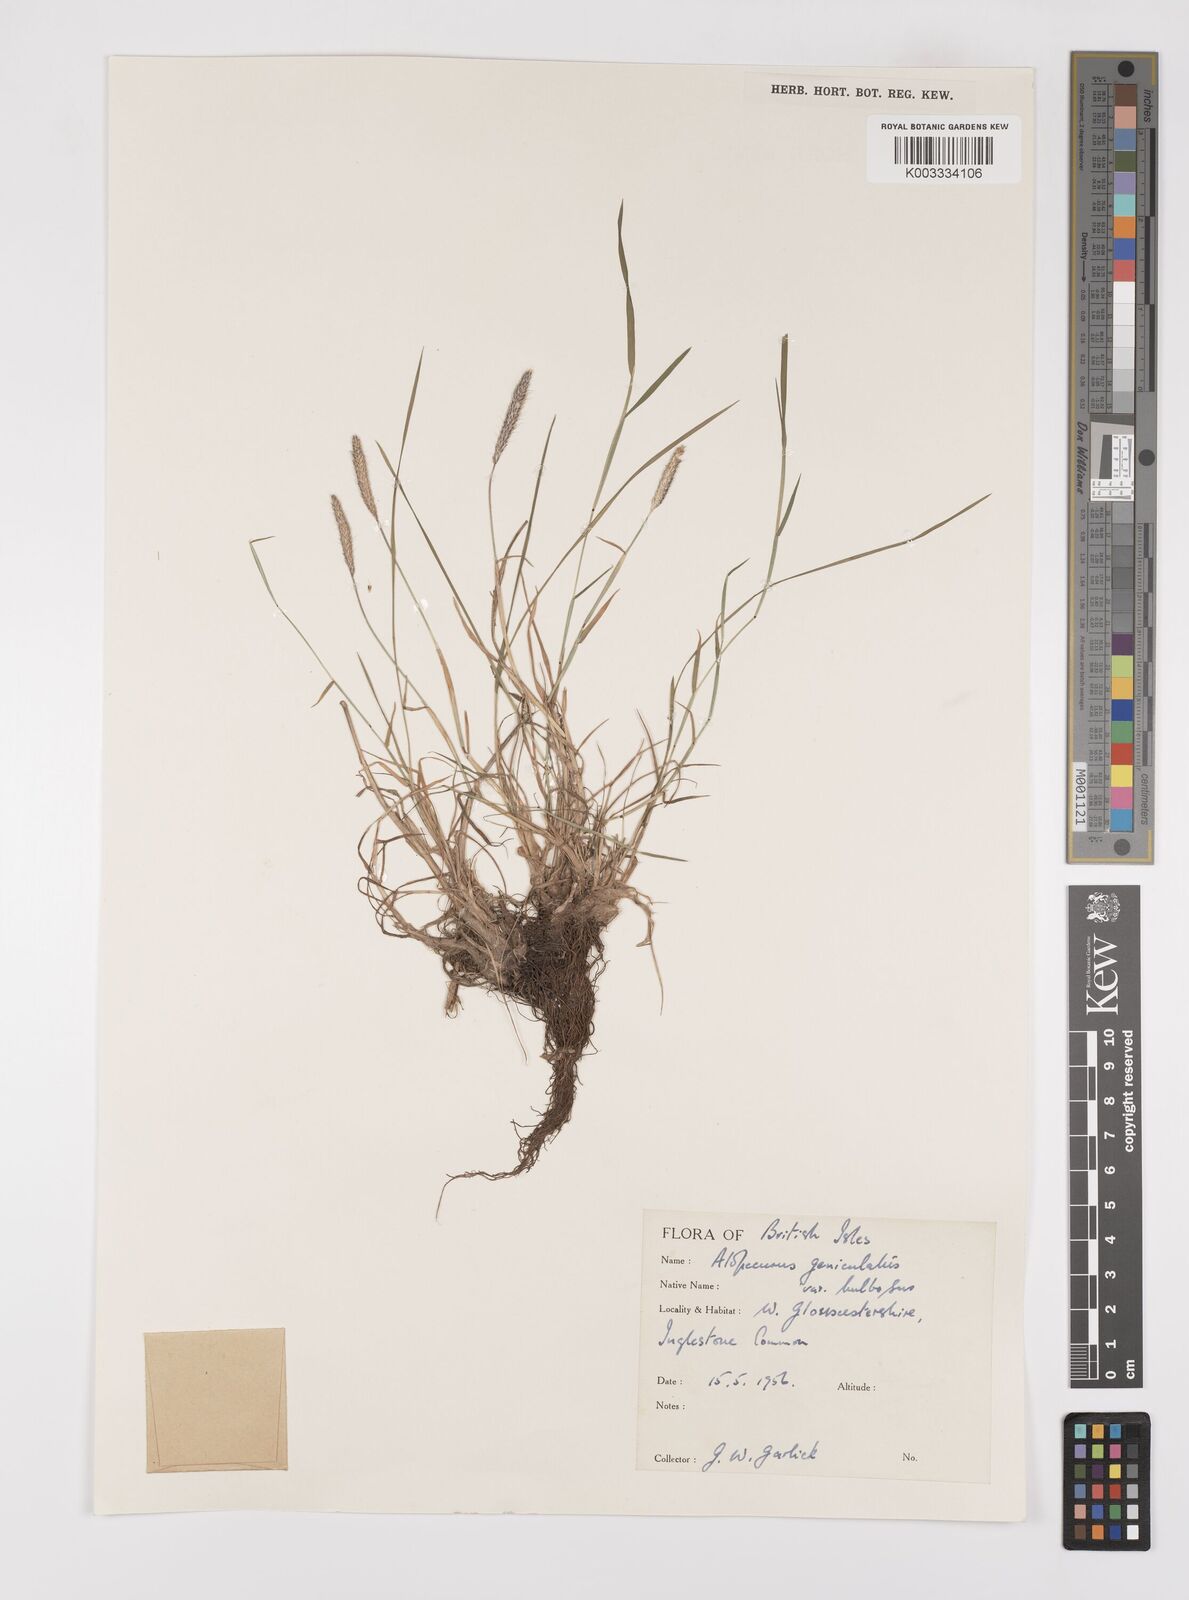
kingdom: Plantae
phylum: Tracheophyta
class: Liliopsida
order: Poales
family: Poaceae
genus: Alopecurus
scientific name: Alopecurus geniculatus
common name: Water foxtail
